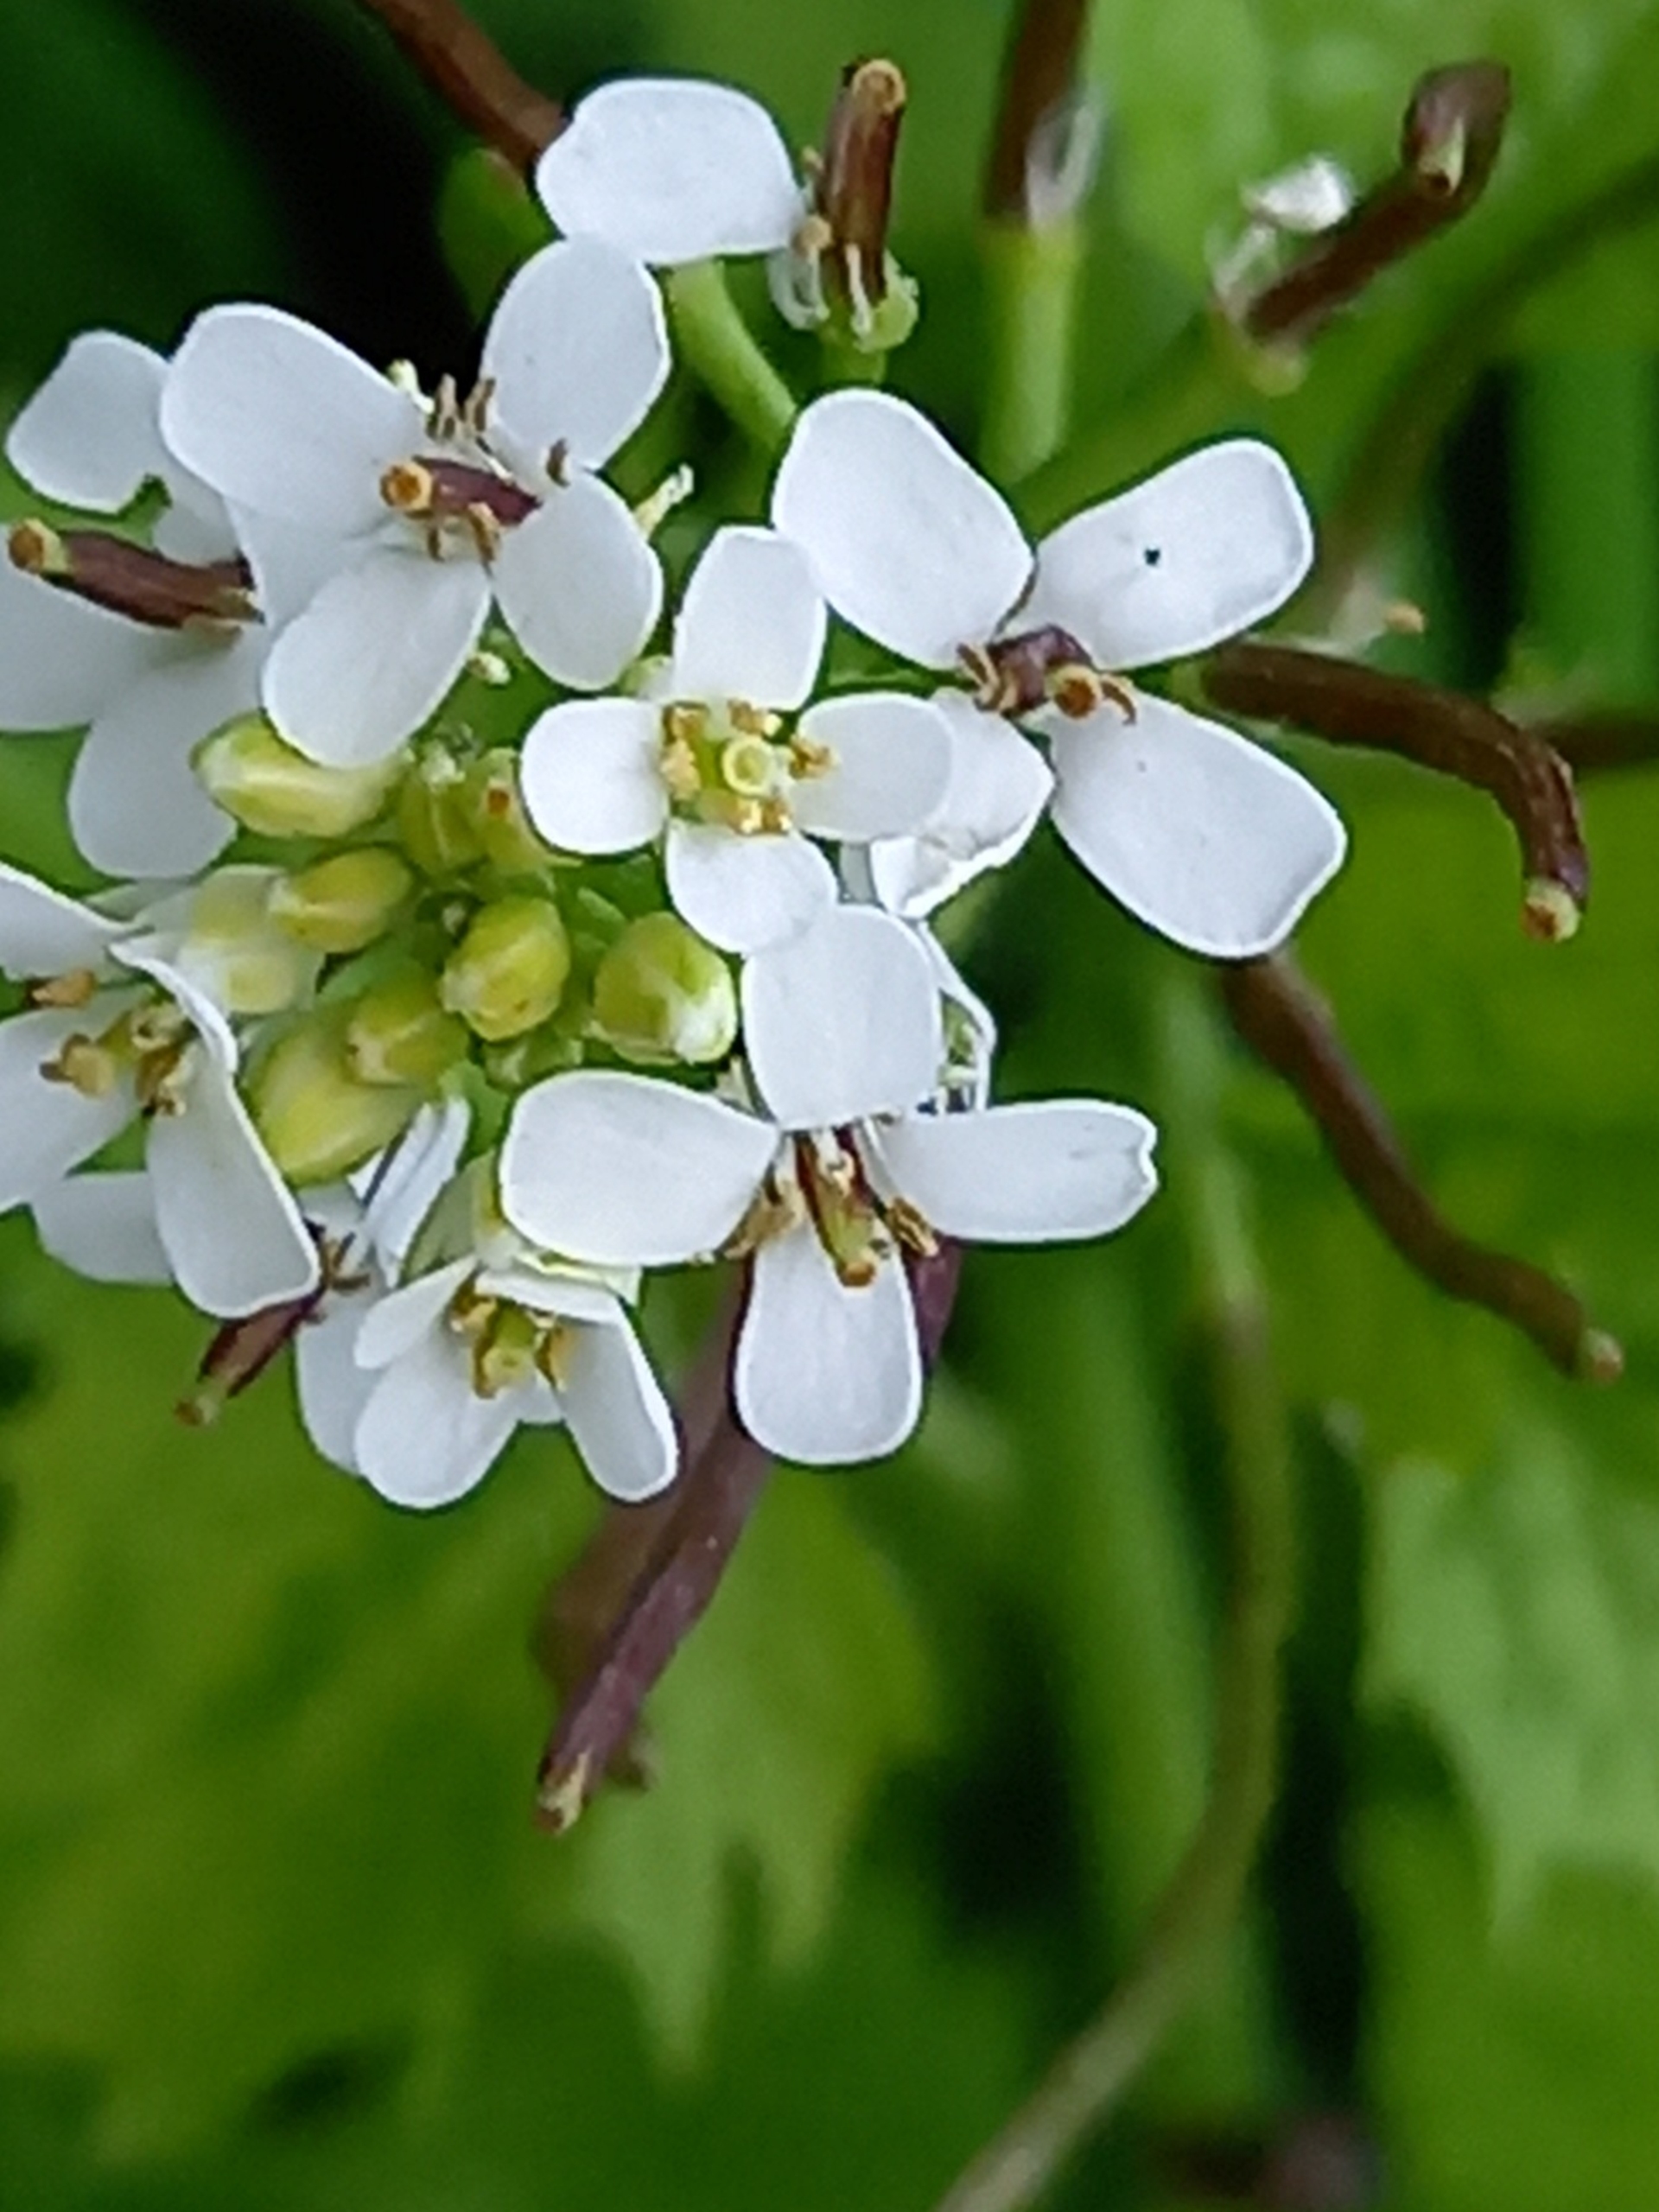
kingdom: Plantae
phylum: Tracheophyta
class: Magnoliopsida
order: Brassicales
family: Brassicaceae
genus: Alliaria
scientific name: Alliaria petiolata
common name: Løgkarse
